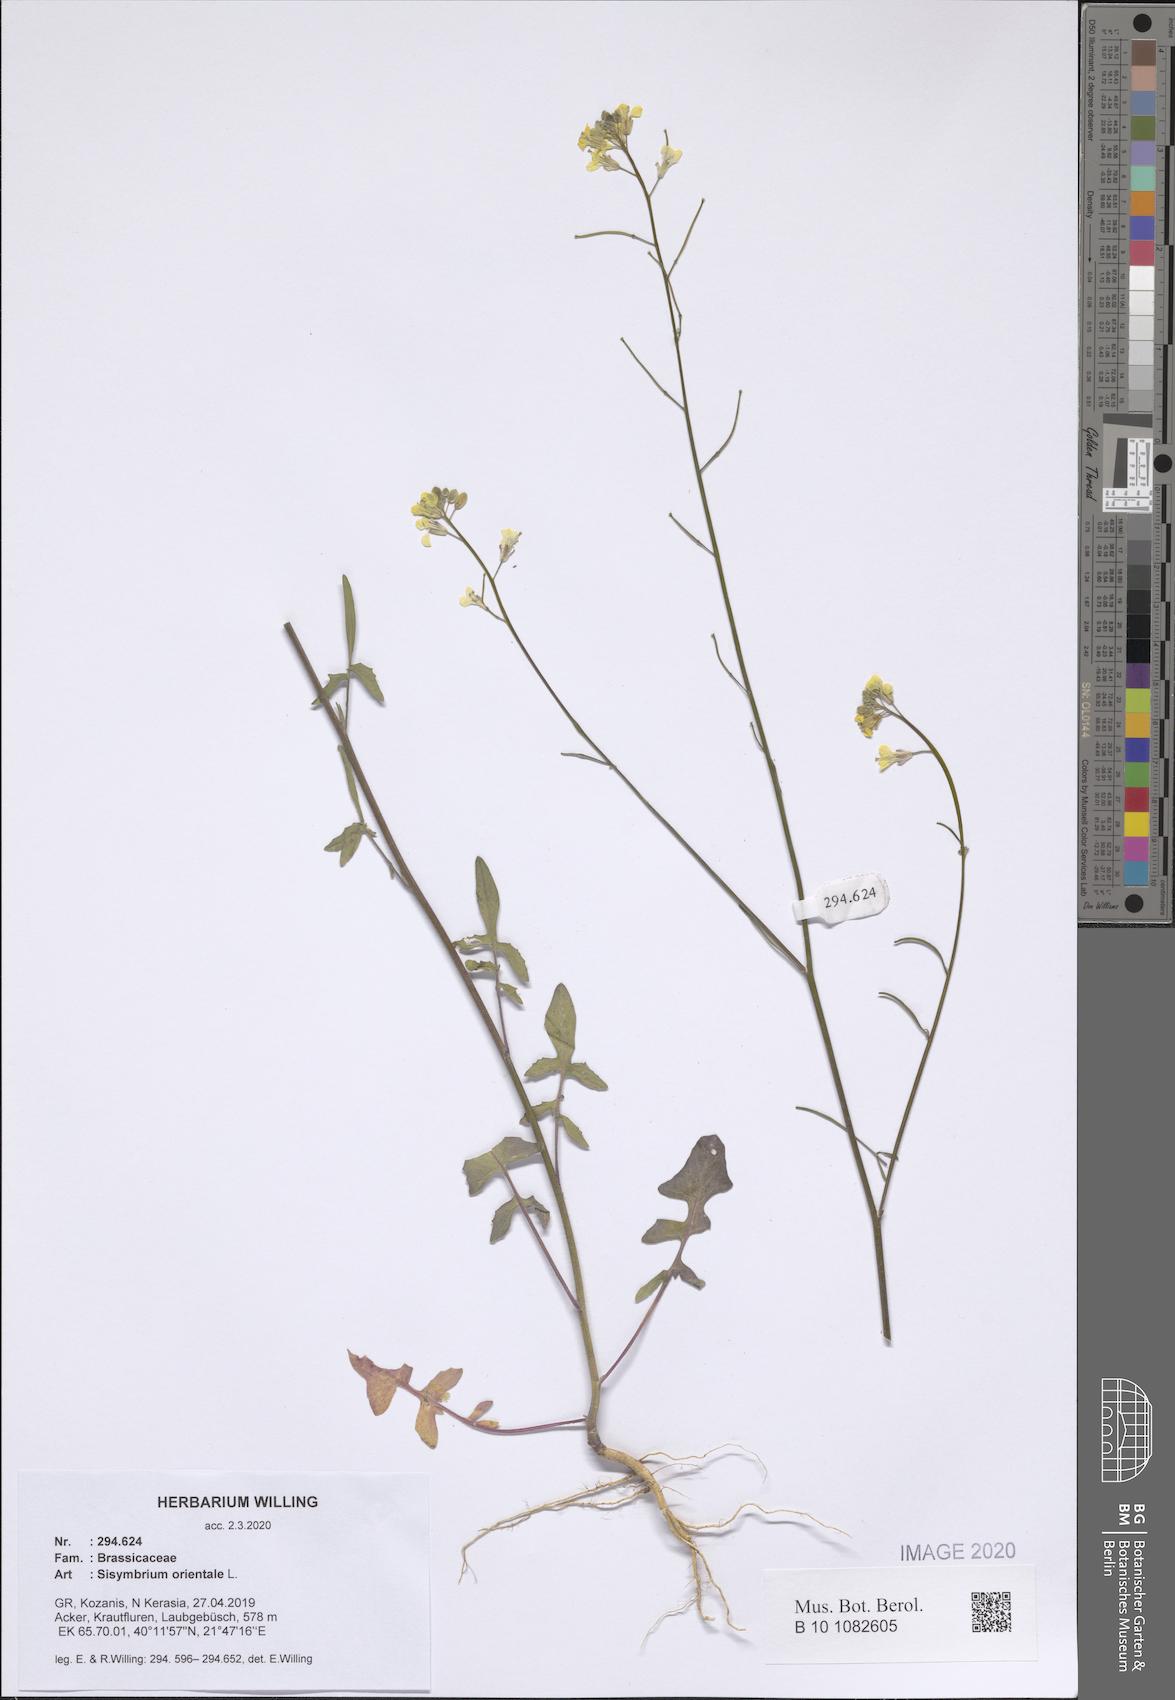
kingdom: Plantae
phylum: Tracheophyta
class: Magnoliopsida
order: Brassicales
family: Brassicaceae
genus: Sisymbrium
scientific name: Sisymbrium orientale
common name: Eastern rocket
